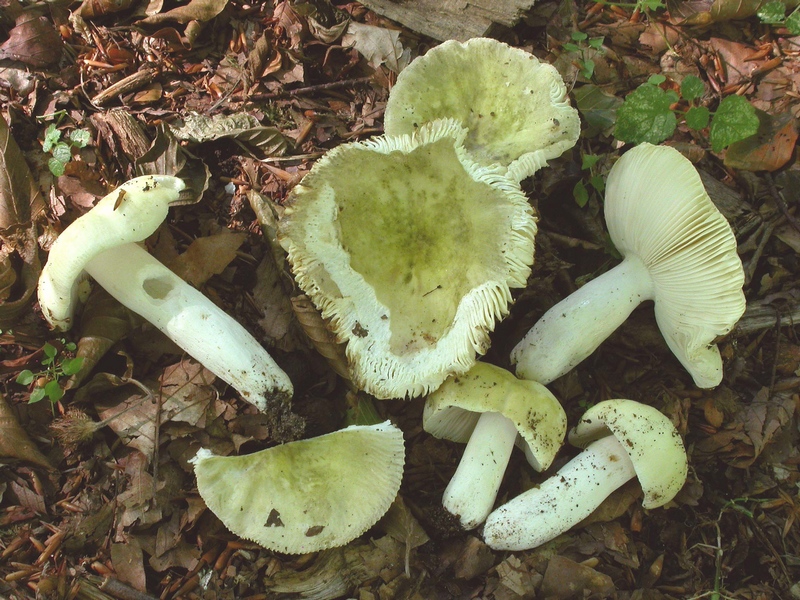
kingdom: Fungi
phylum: Basidiomycota
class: Agaricomycetes
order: Russulales
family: Russulaceae
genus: Russula
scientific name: Russula violeipes
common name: ferskengul skørhat
